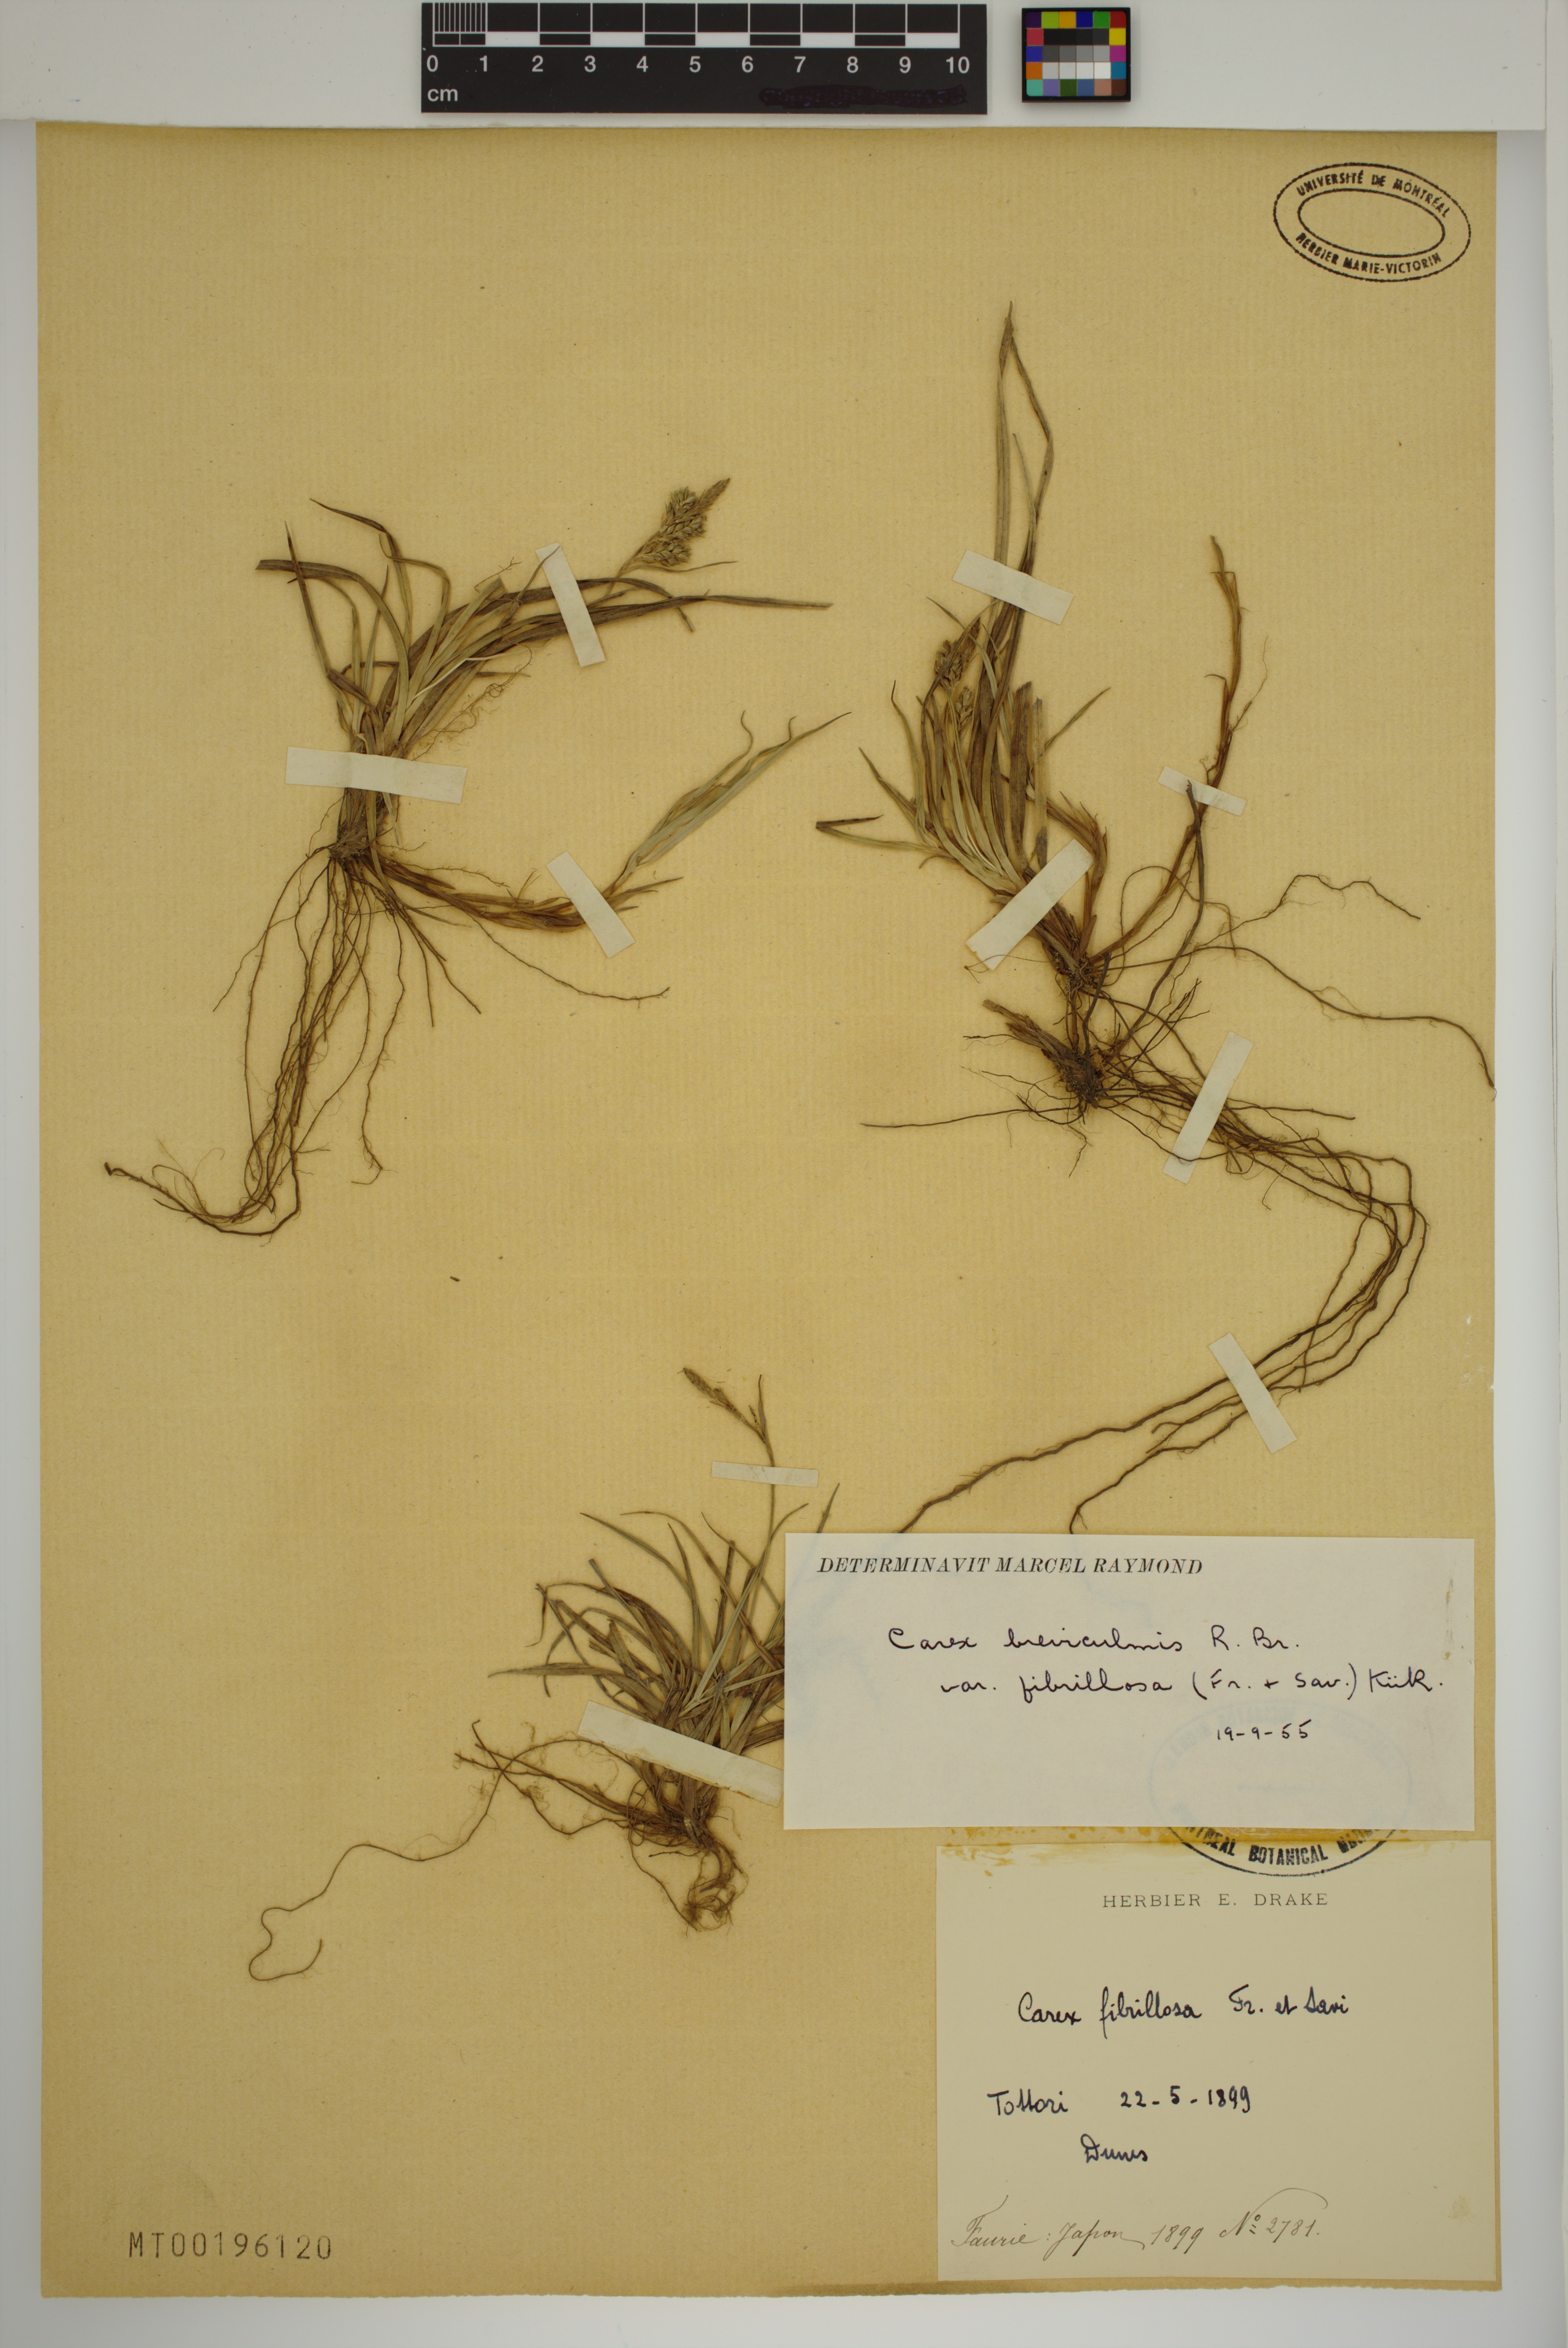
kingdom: Plantae
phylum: Tracheophyta
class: Liliopsida
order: Poales
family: Cyperaceae
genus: Carex
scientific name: Carex fibrillosa
